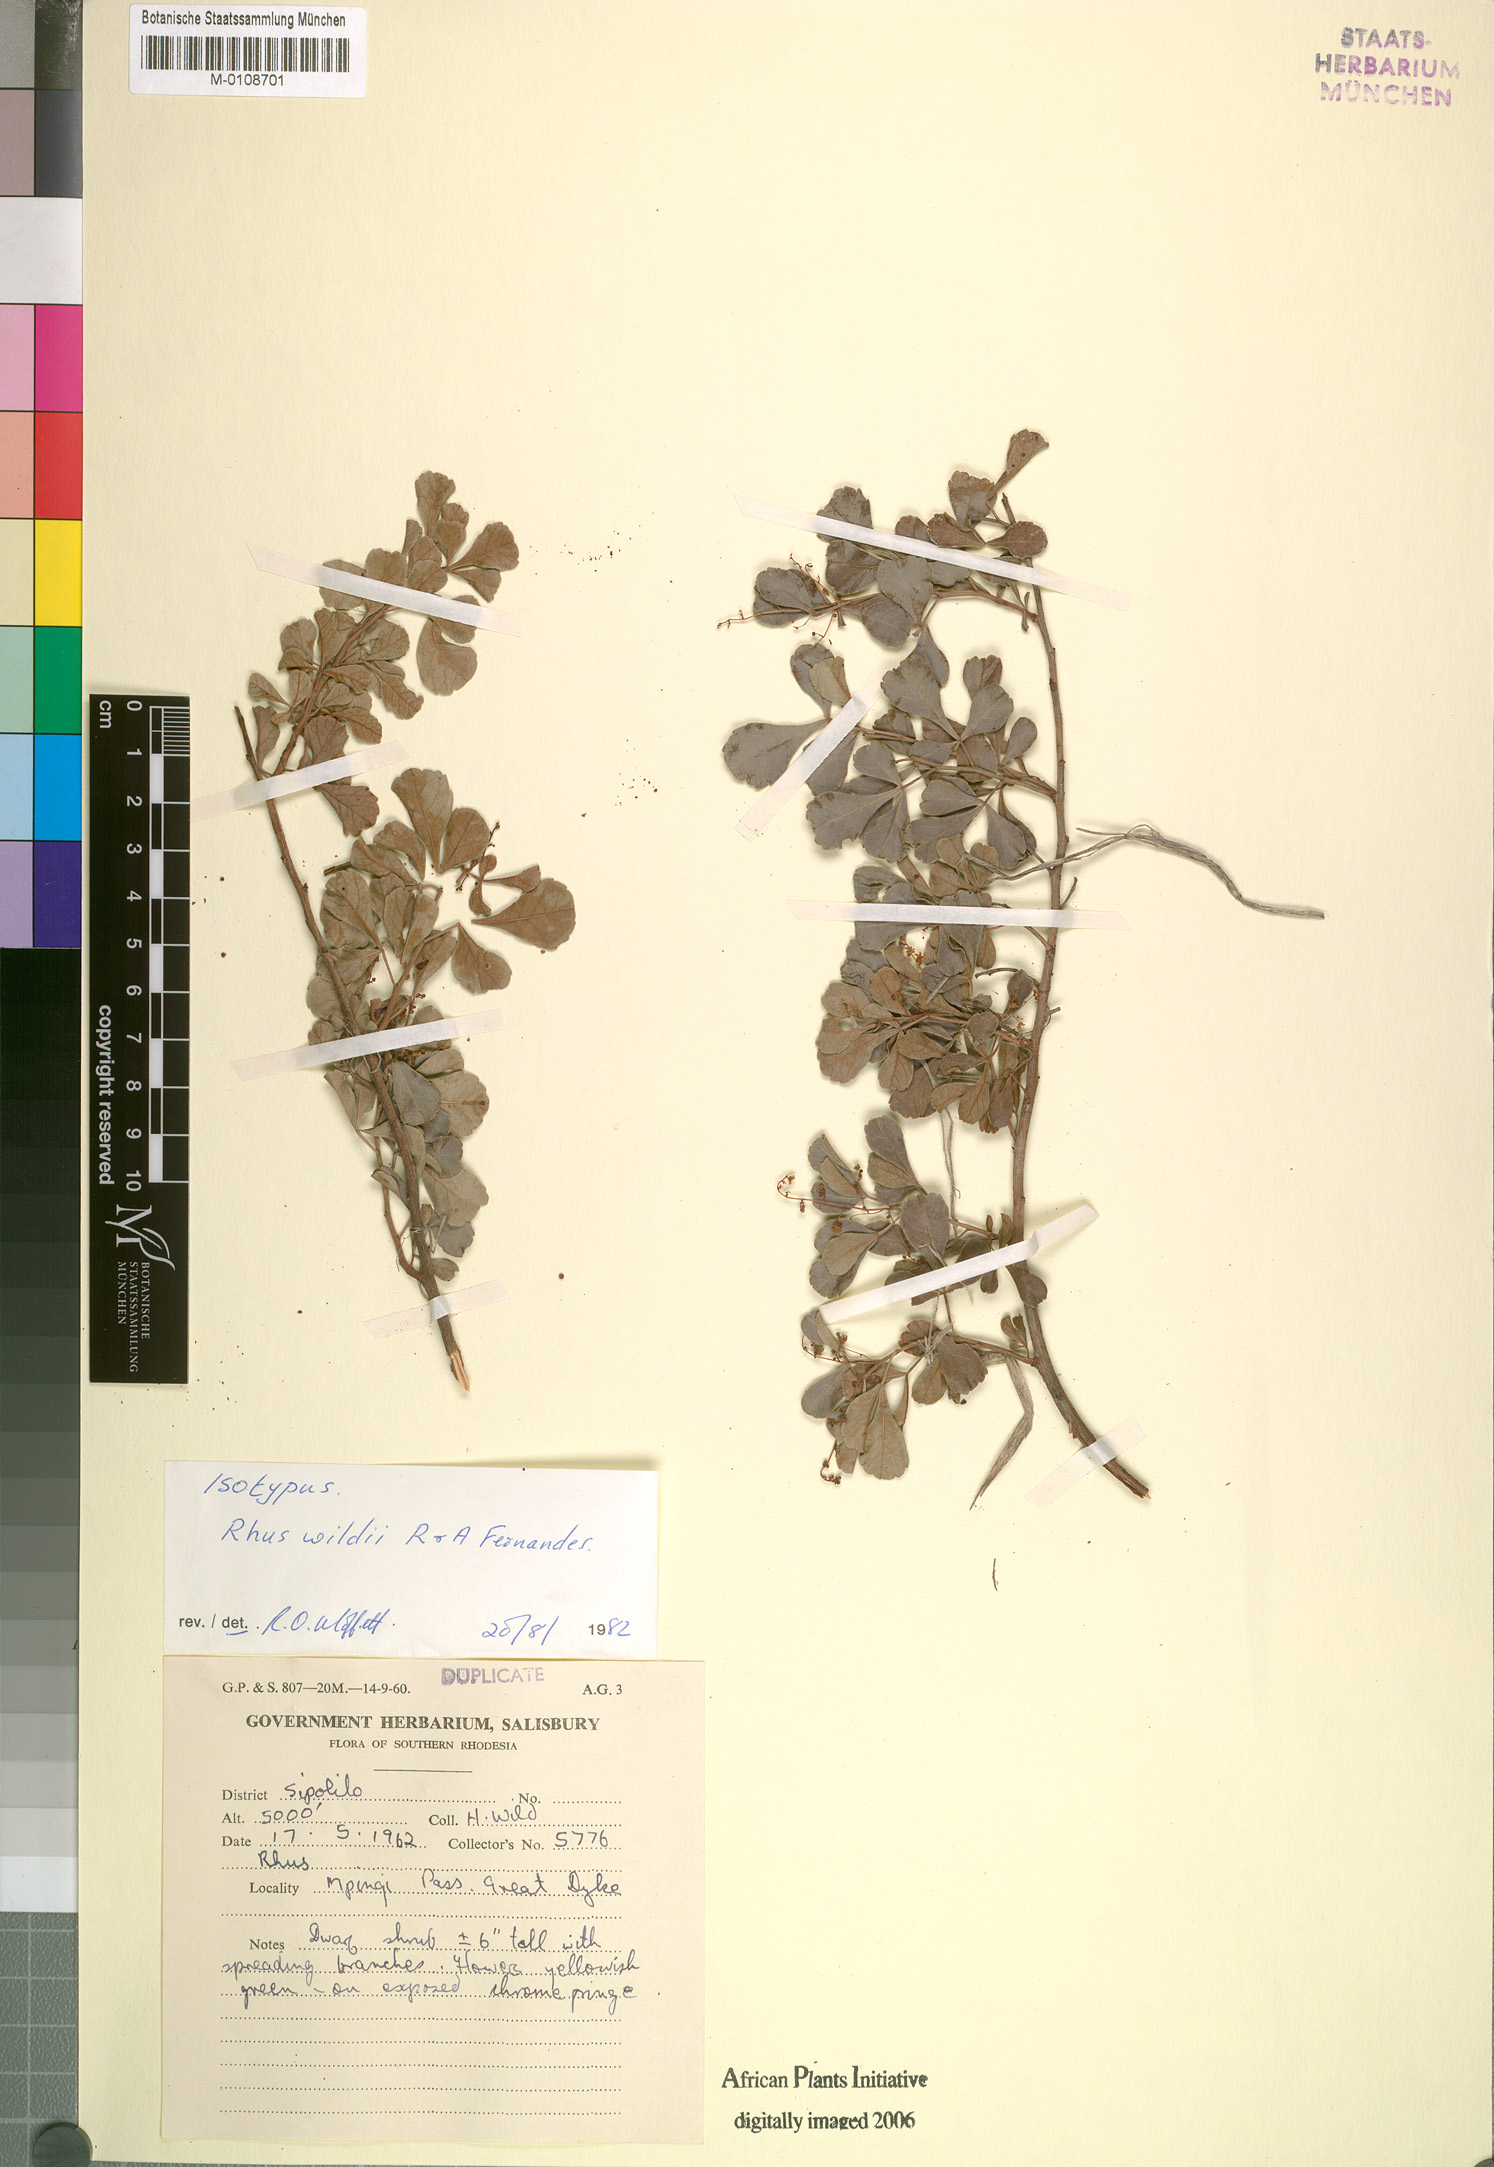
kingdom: Plantae
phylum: Tracheophyta
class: Magnoliopsida
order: Sapindales
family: Anacardiaceae
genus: Searsia
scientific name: Searsia wildii
